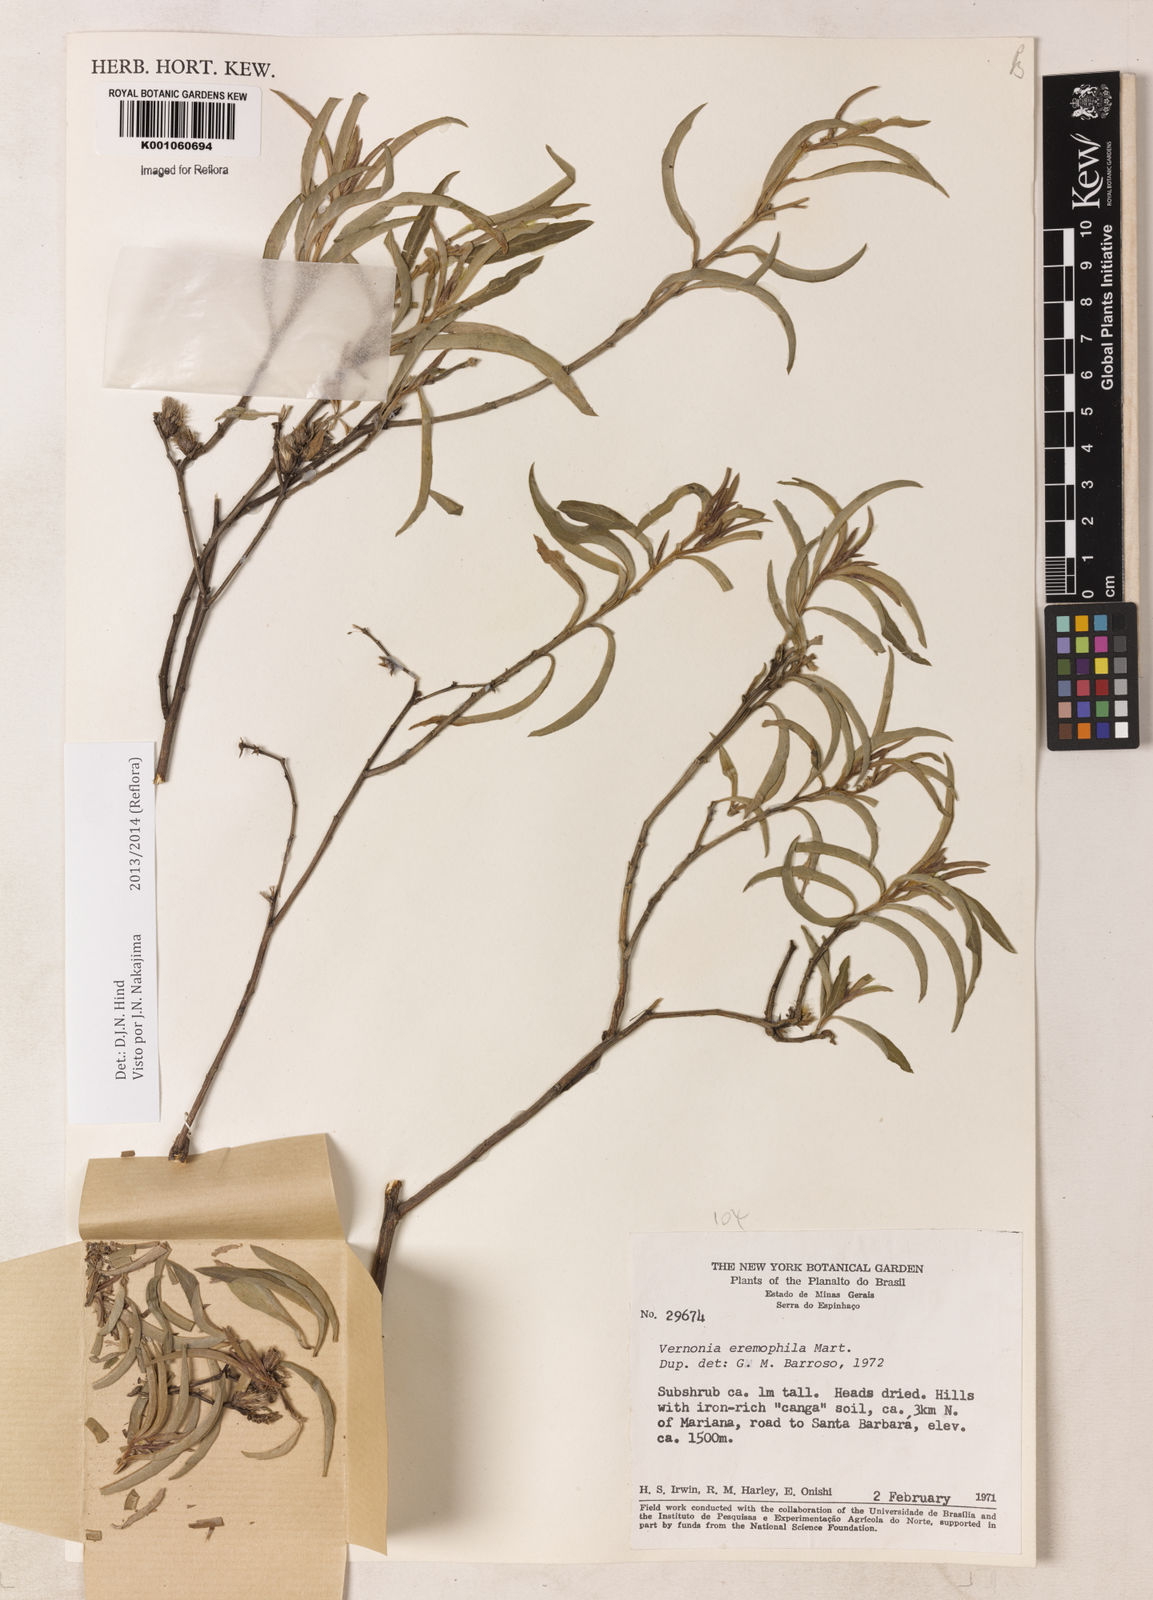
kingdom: Plantae
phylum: Tracheophyta
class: Magnoliopsida
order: Asterales
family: Asteraceae
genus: Lepidaploa
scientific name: Lepidaploa rufogrisea
